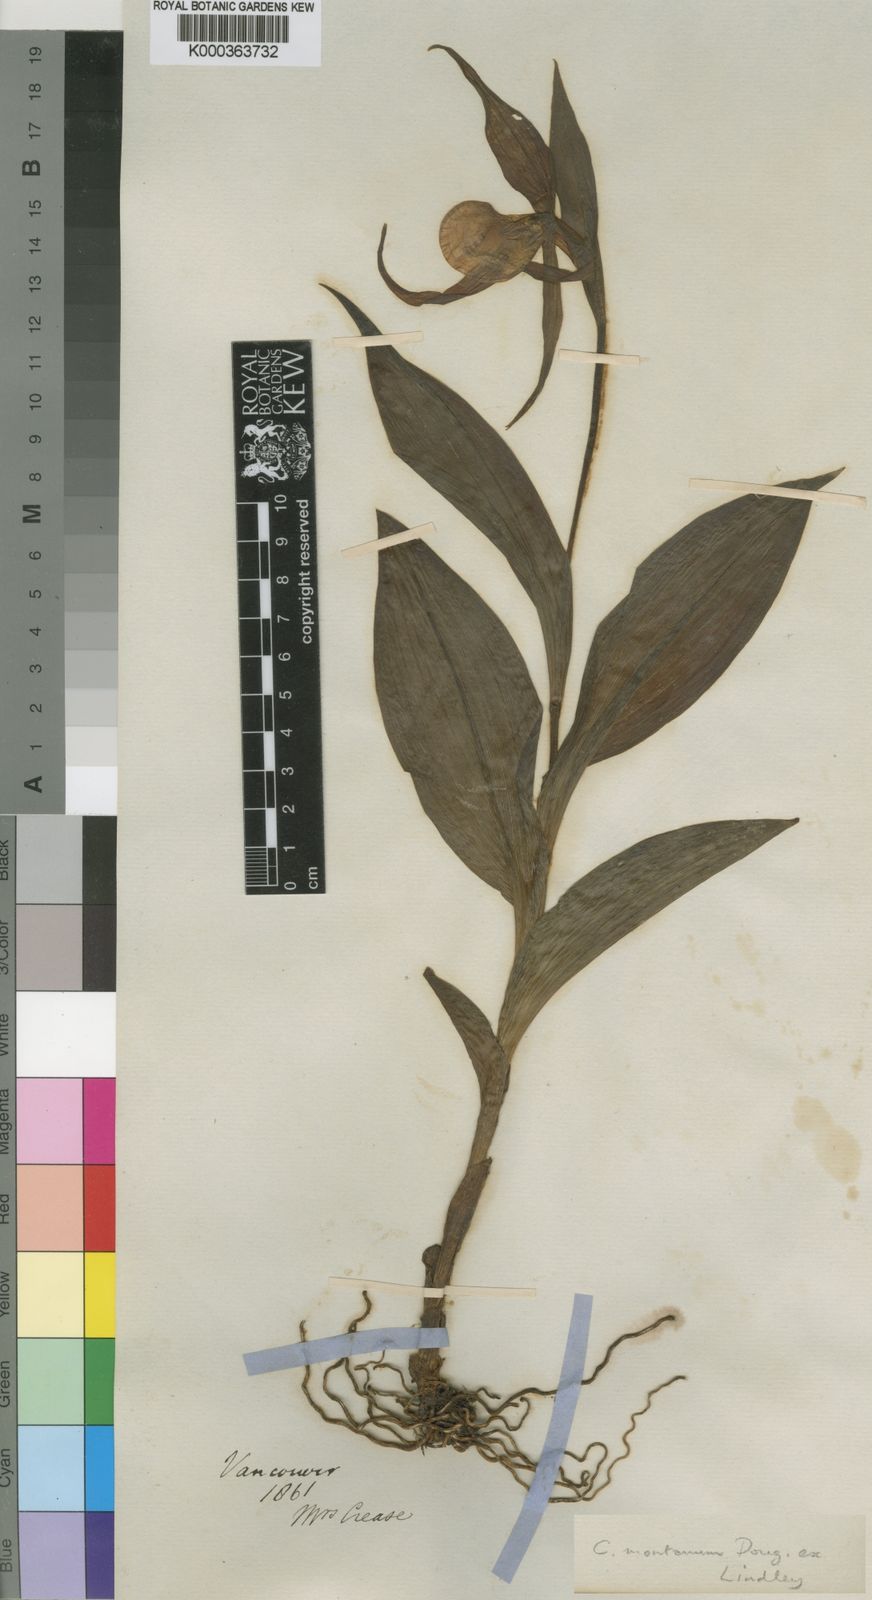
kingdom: Plantae
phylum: Tracheophyta
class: Liliopsida
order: Asparagales
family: Orchidaceae
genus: Cypripedium
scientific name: Cypripedium montanum
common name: Mountain lady's-slipper
